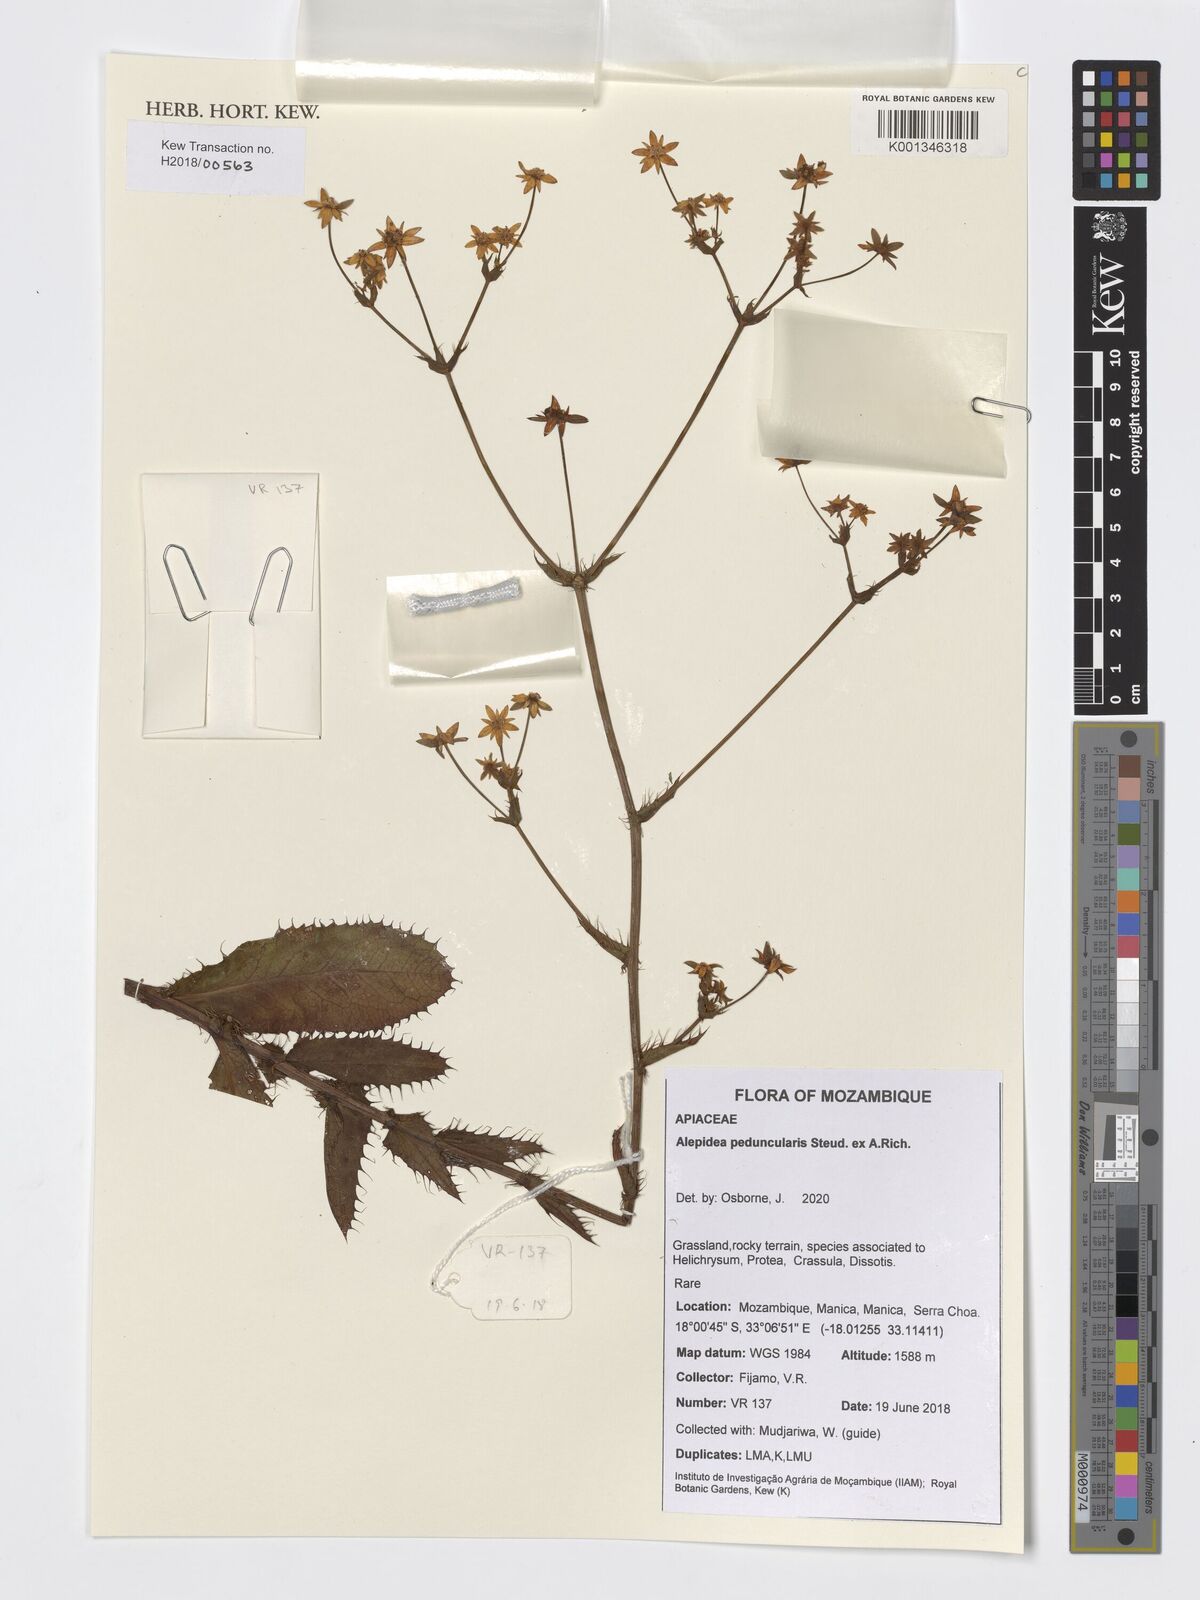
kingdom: Plantae
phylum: Tracheophyta
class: Magnoliopsida
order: Apiales
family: Apiaceae
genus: Alepidea
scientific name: Alepidea peduncularis
